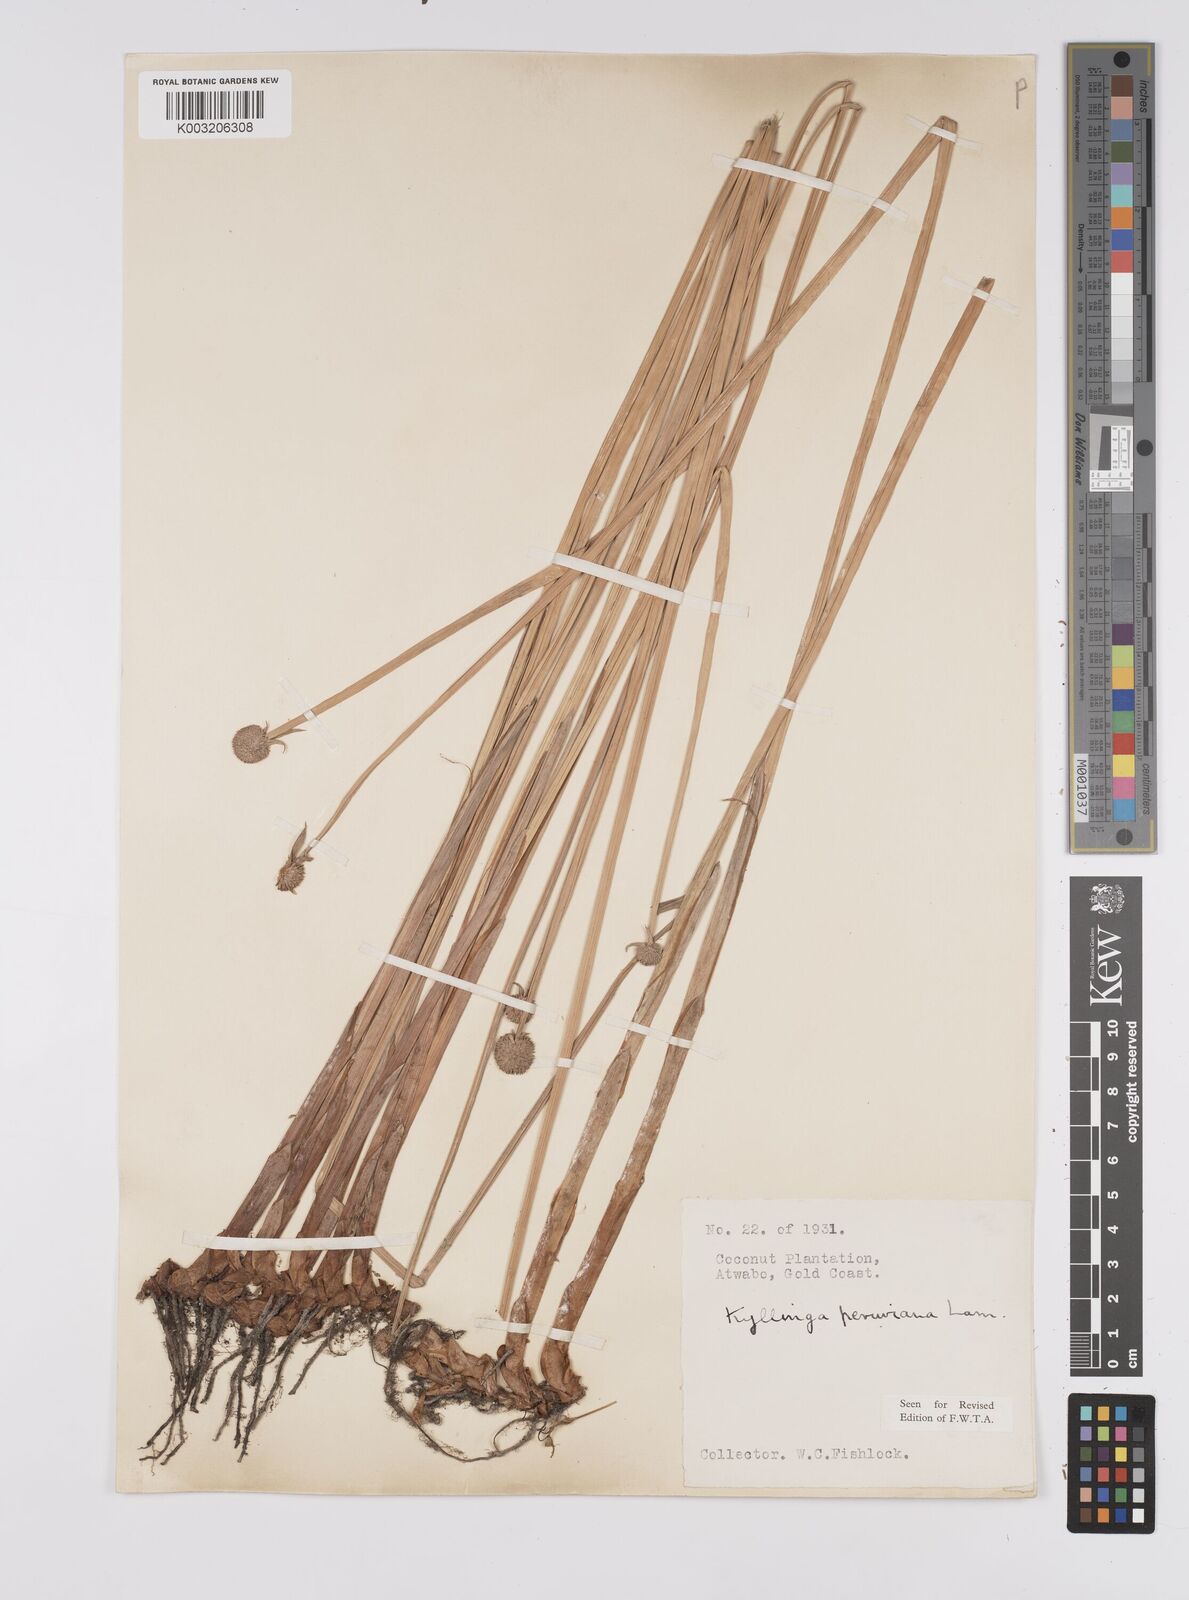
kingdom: Plantae
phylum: Tracheophyta
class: Liliopsida
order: Poales
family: Cyperaceae
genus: Cyperus
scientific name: Cyperus obtusatus
